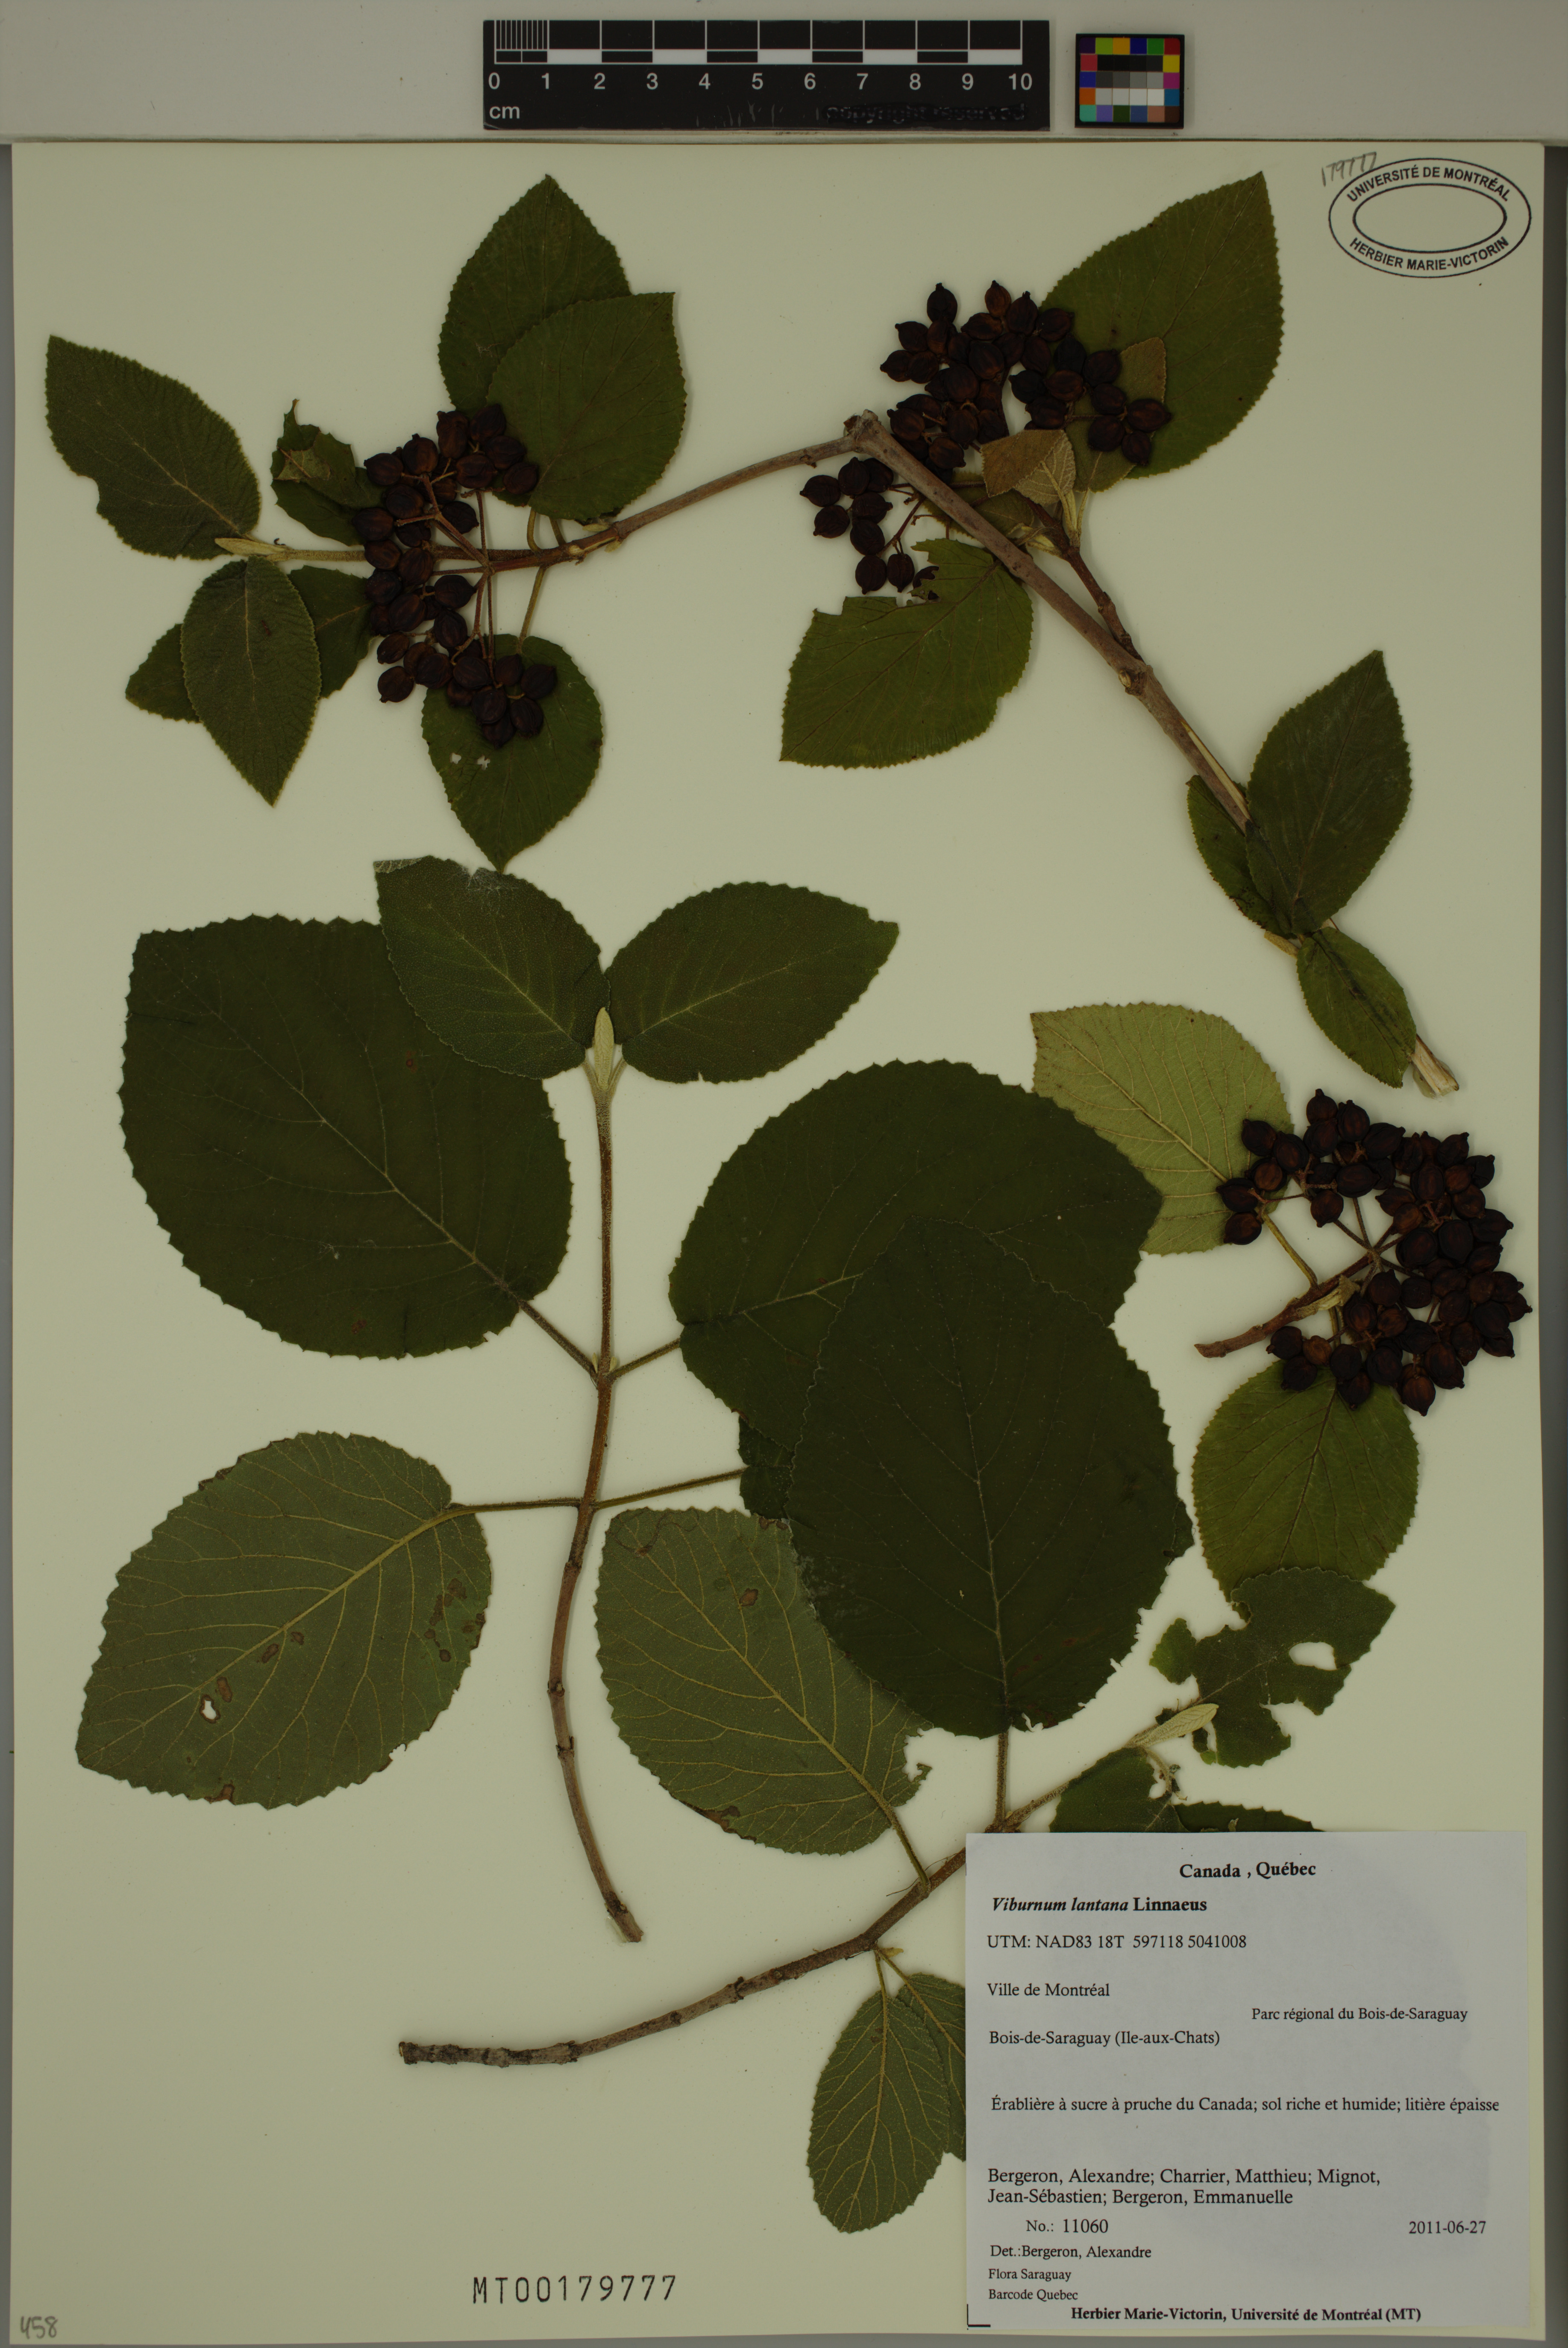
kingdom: Plantae
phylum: Tracheophyta
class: Magnoliopsida
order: Dipsacales
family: Viburnaceae
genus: Viburnum
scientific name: Viburnum lantana
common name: Wayfaring tree
